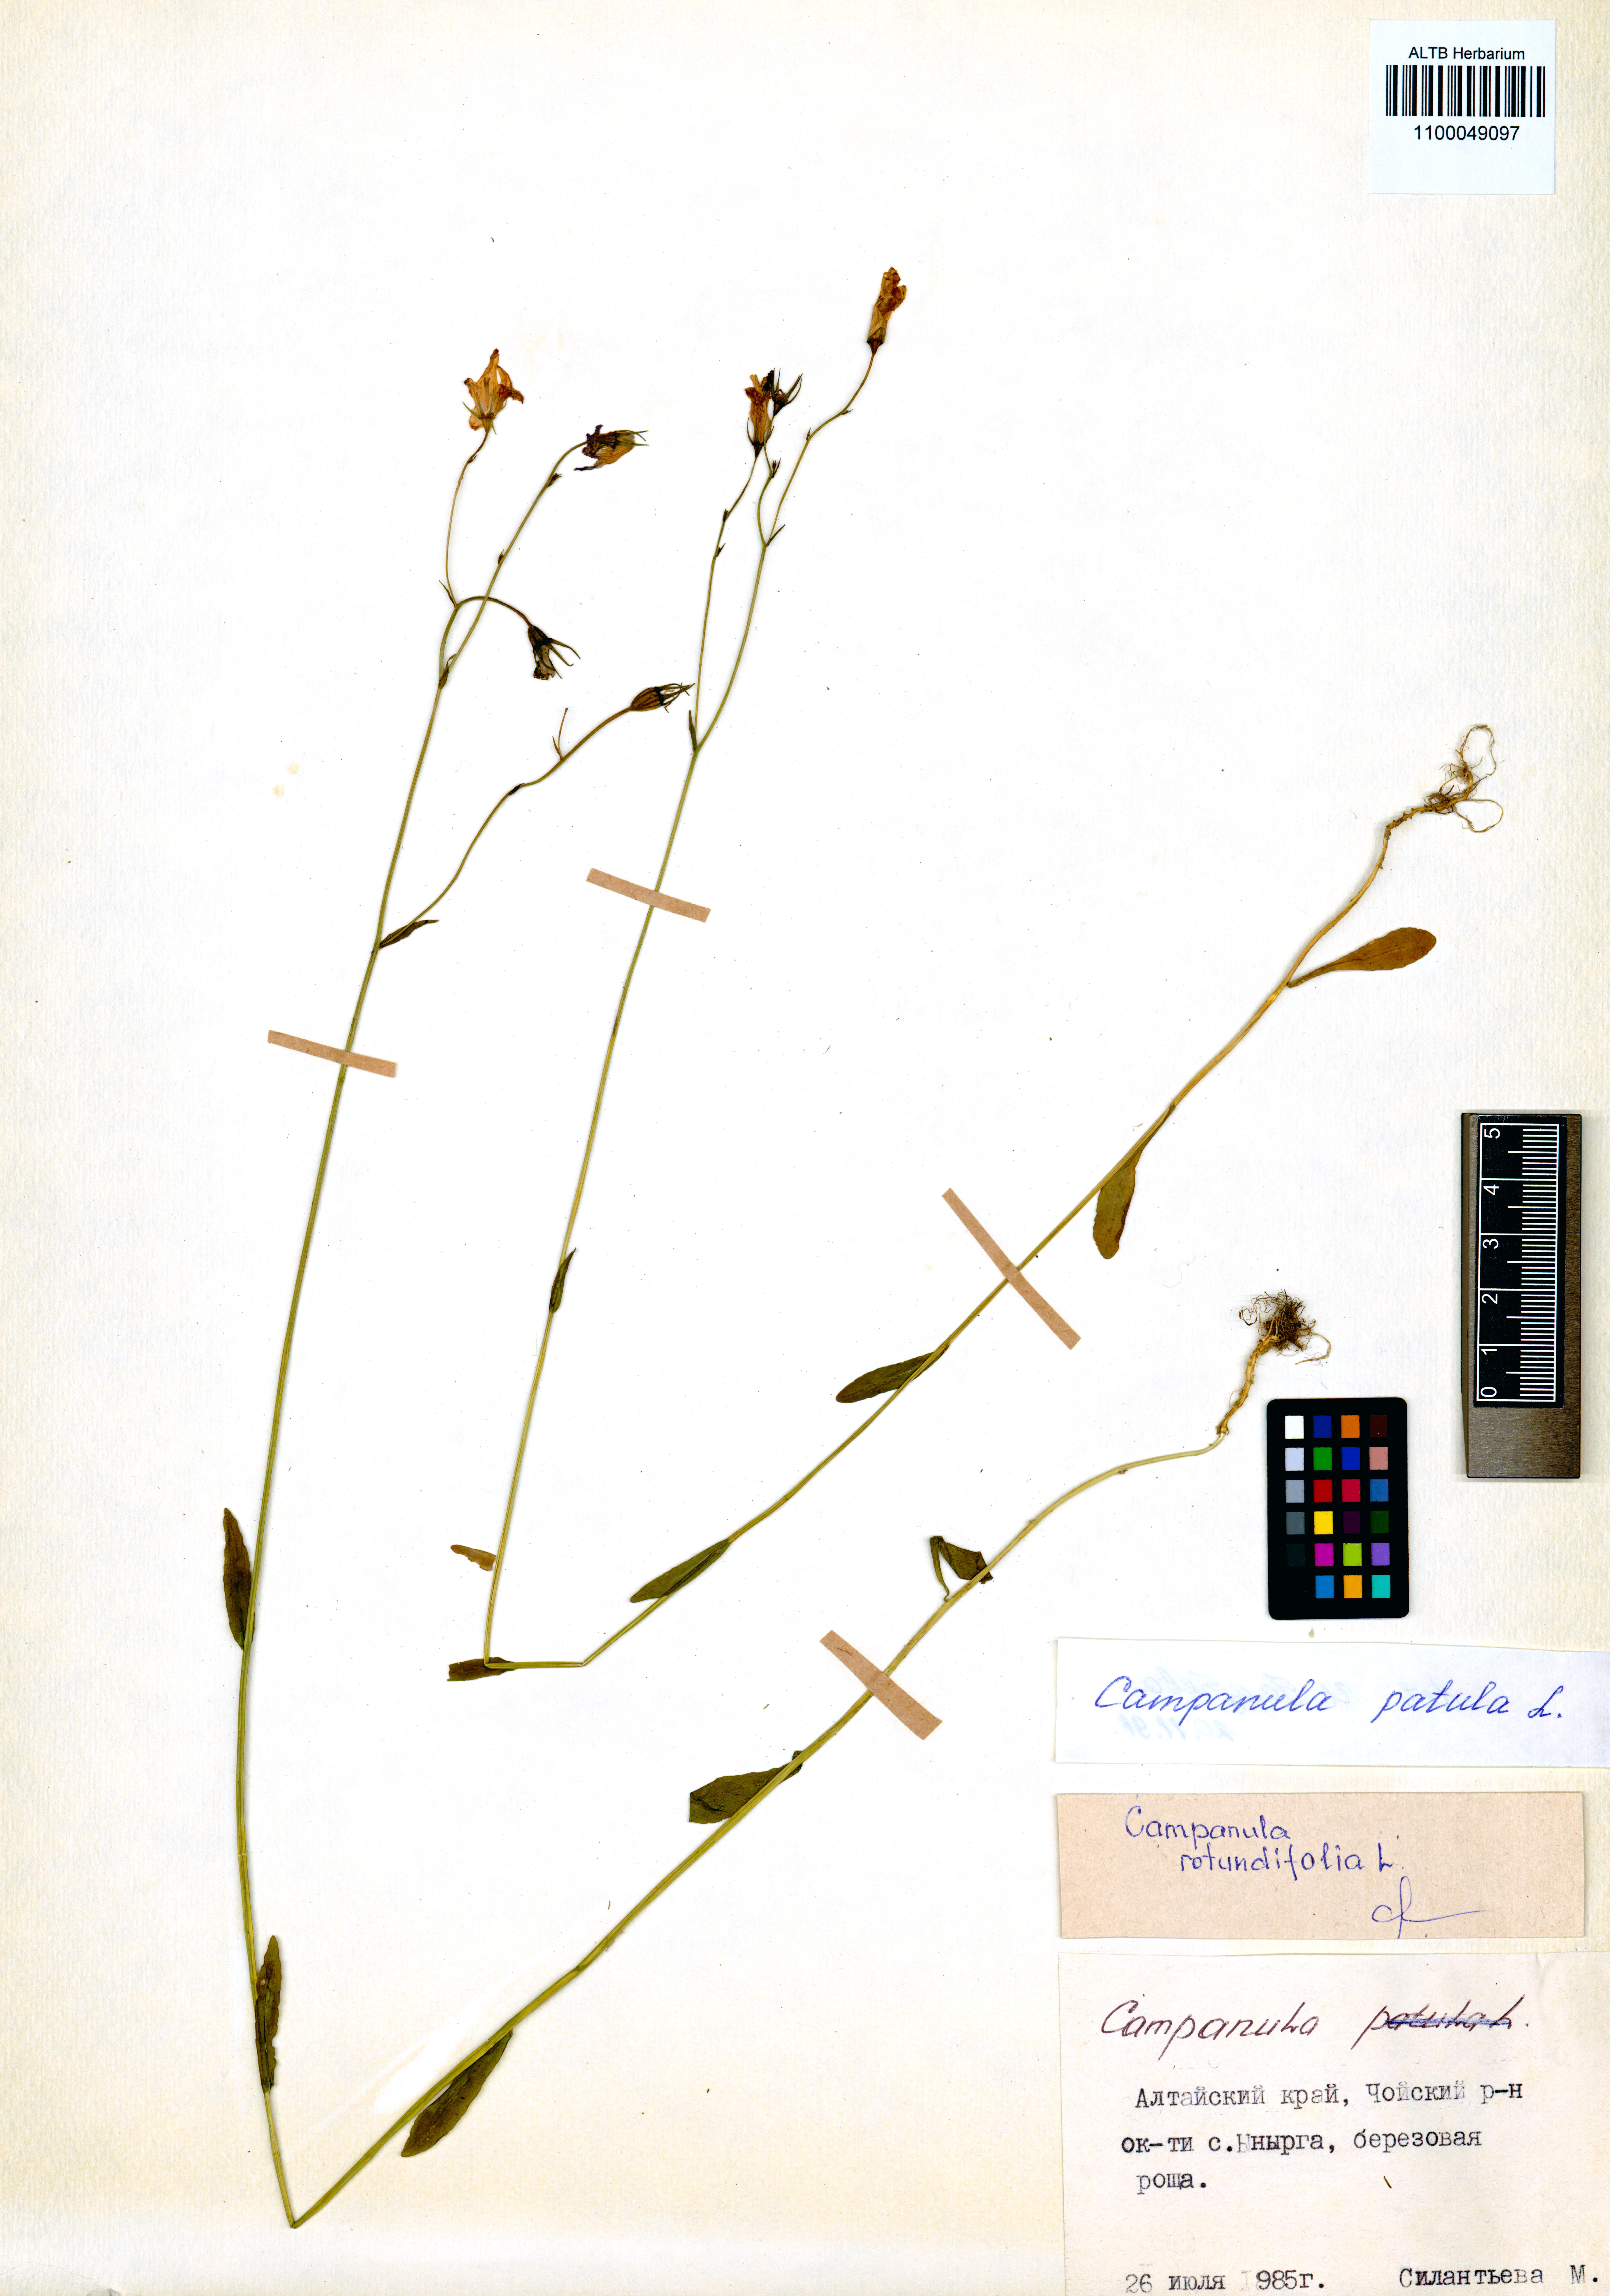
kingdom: Plantae
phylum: Tracheophyta
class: Magnoliopsida
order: Asterales
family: Campanulaceae
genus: Campanula
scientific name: Campanula patula
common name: Spreading bellflower
